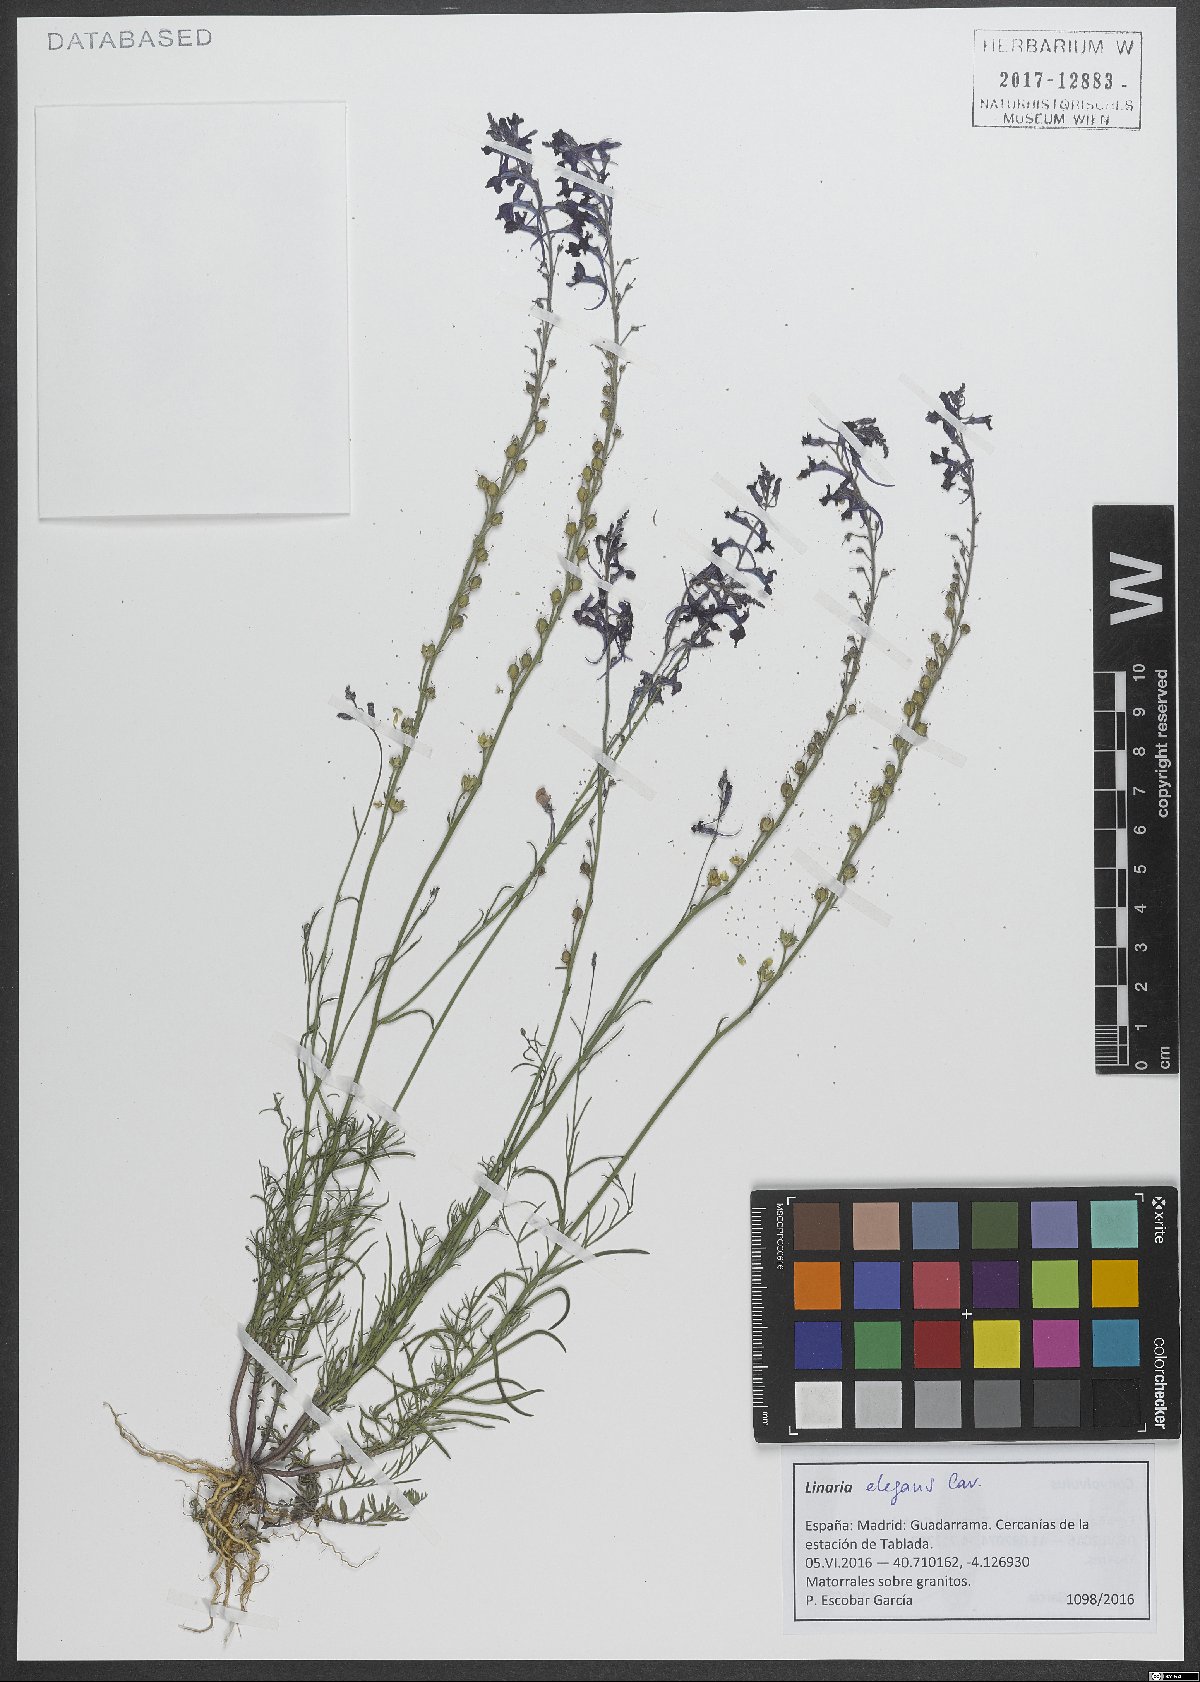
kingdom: Plantae
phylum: Tracheophyta
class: Magnoliopsida
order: Lamiales
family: Plantaginaceae
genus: Linaria
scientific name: Linaria elegans
